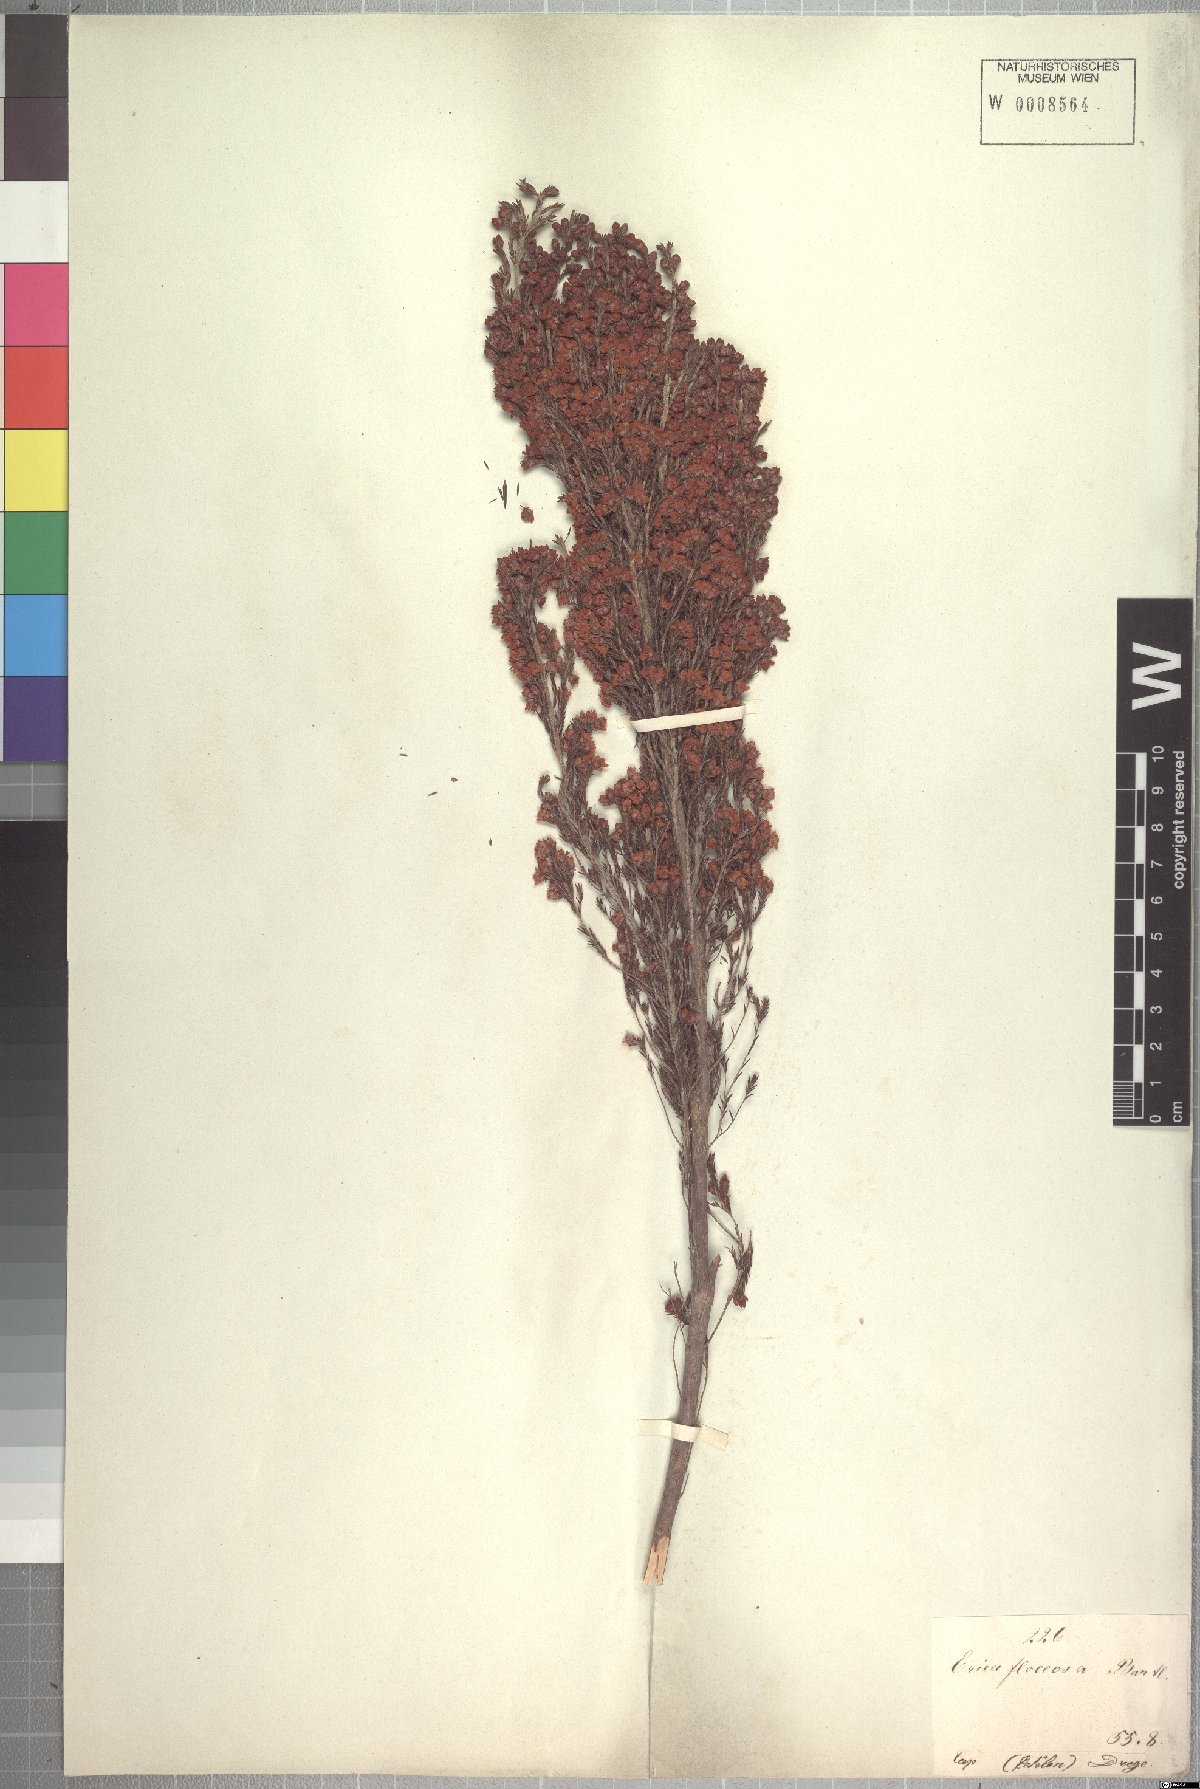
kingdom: Plantae
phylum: Tracheophyta
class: Magnoliopsida
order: Ericales
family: Ericaceae
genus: Erica
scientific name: Erica floccifera
